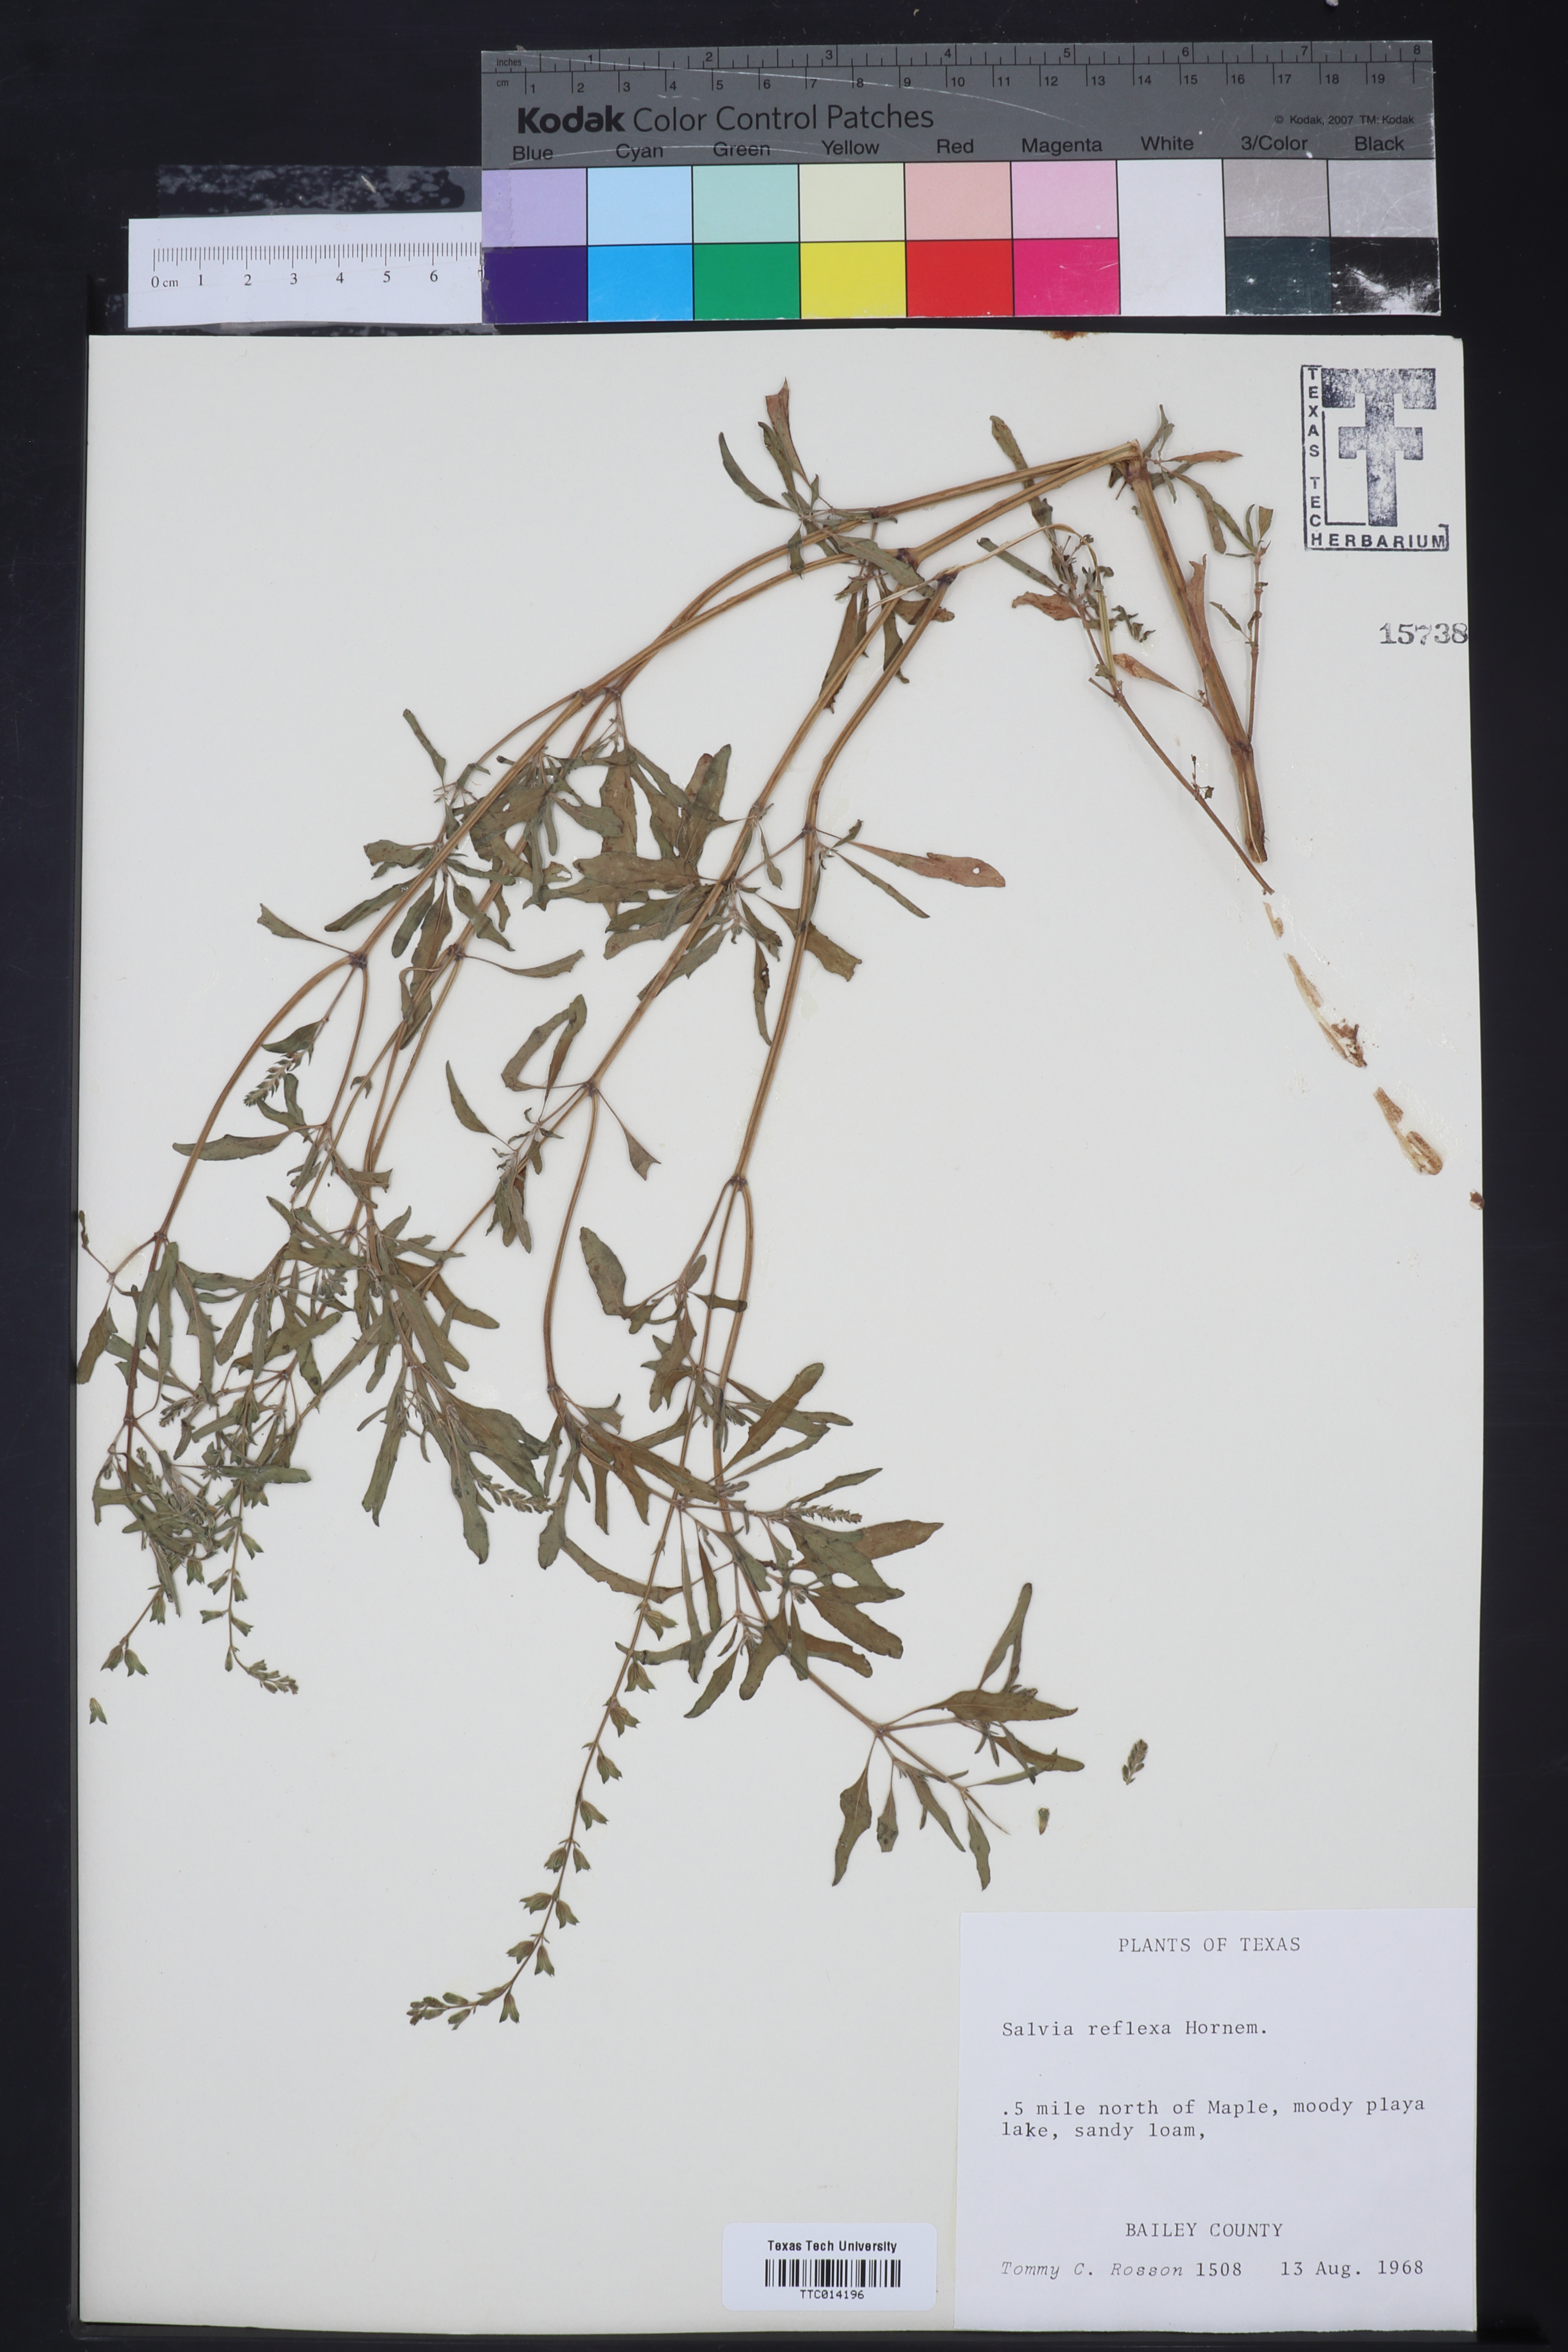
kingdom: Plantae
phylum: Tracheophyta
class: Magnoliopsida
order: Lamiales
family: Lamiaceae
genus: Salvia
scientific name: Salvia reflexa
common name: Mintweed
